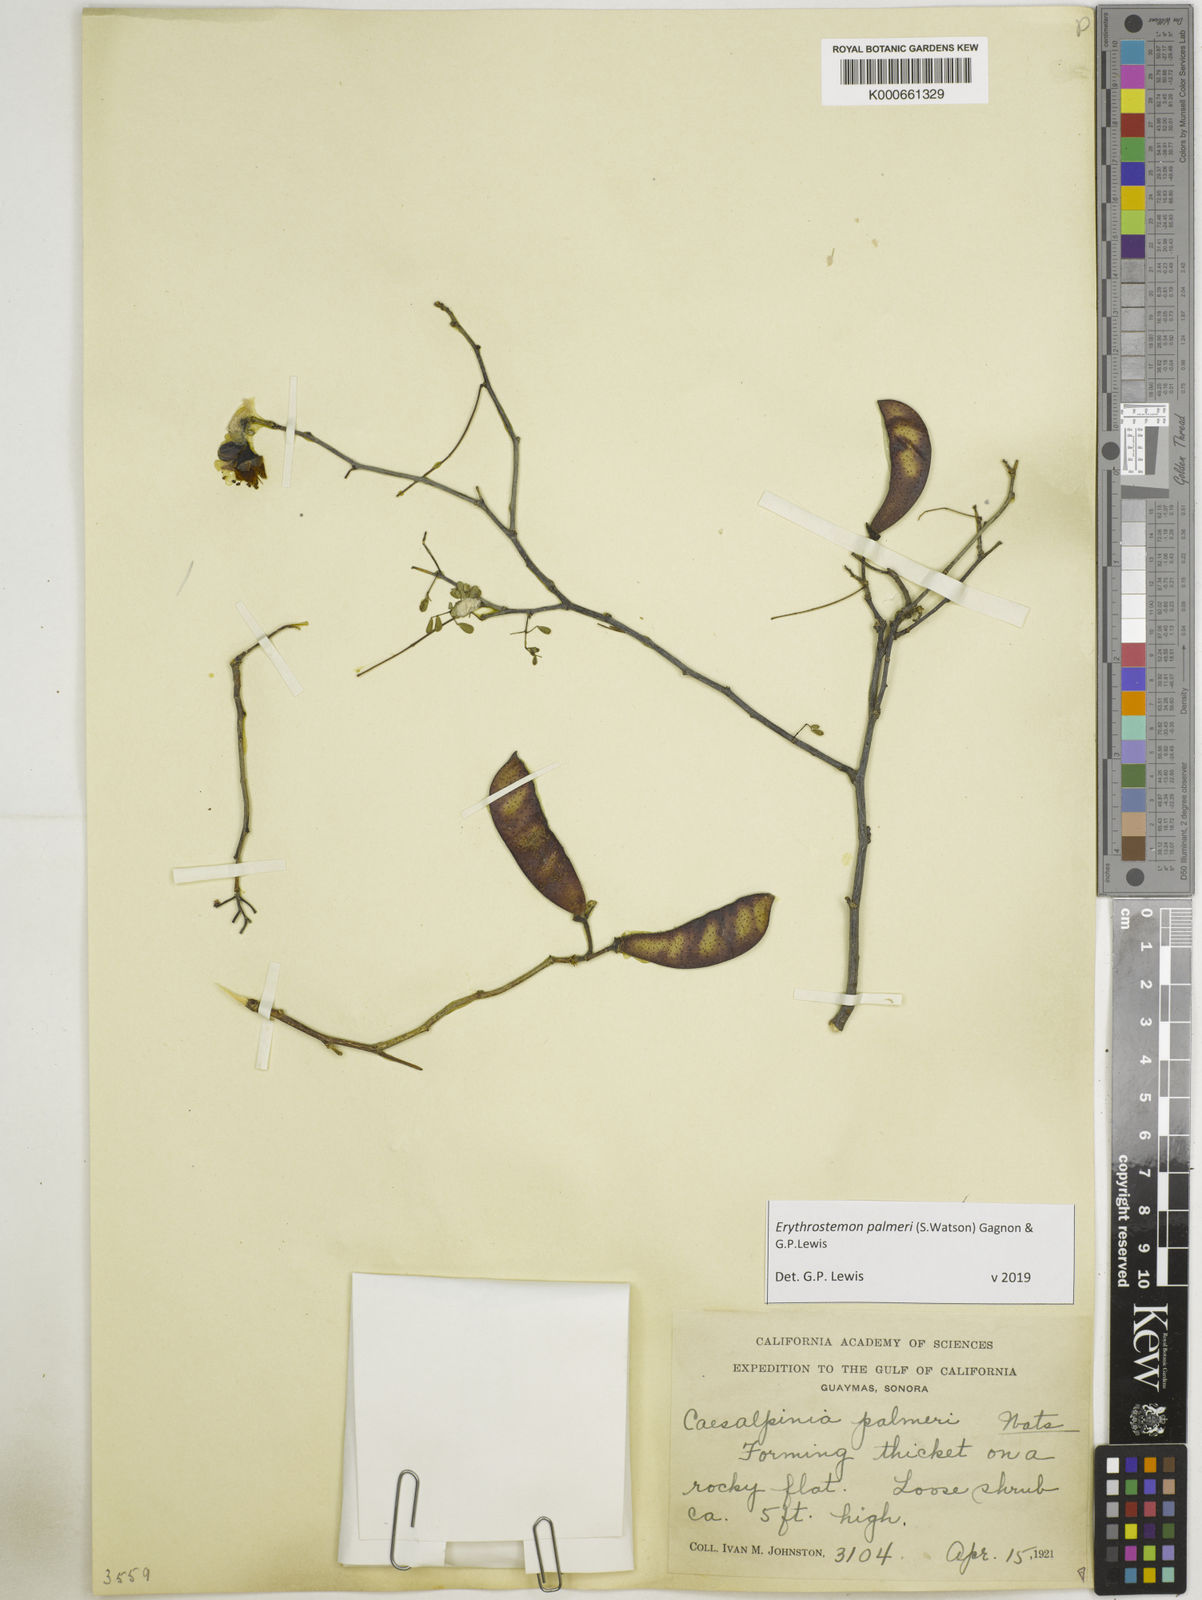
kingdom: Plantae
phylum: Tracheophyta
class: Magnoliopsida
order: Fabales
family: Fabaceae
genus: Erythrostemon
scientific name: Erythrostemon palmeri
